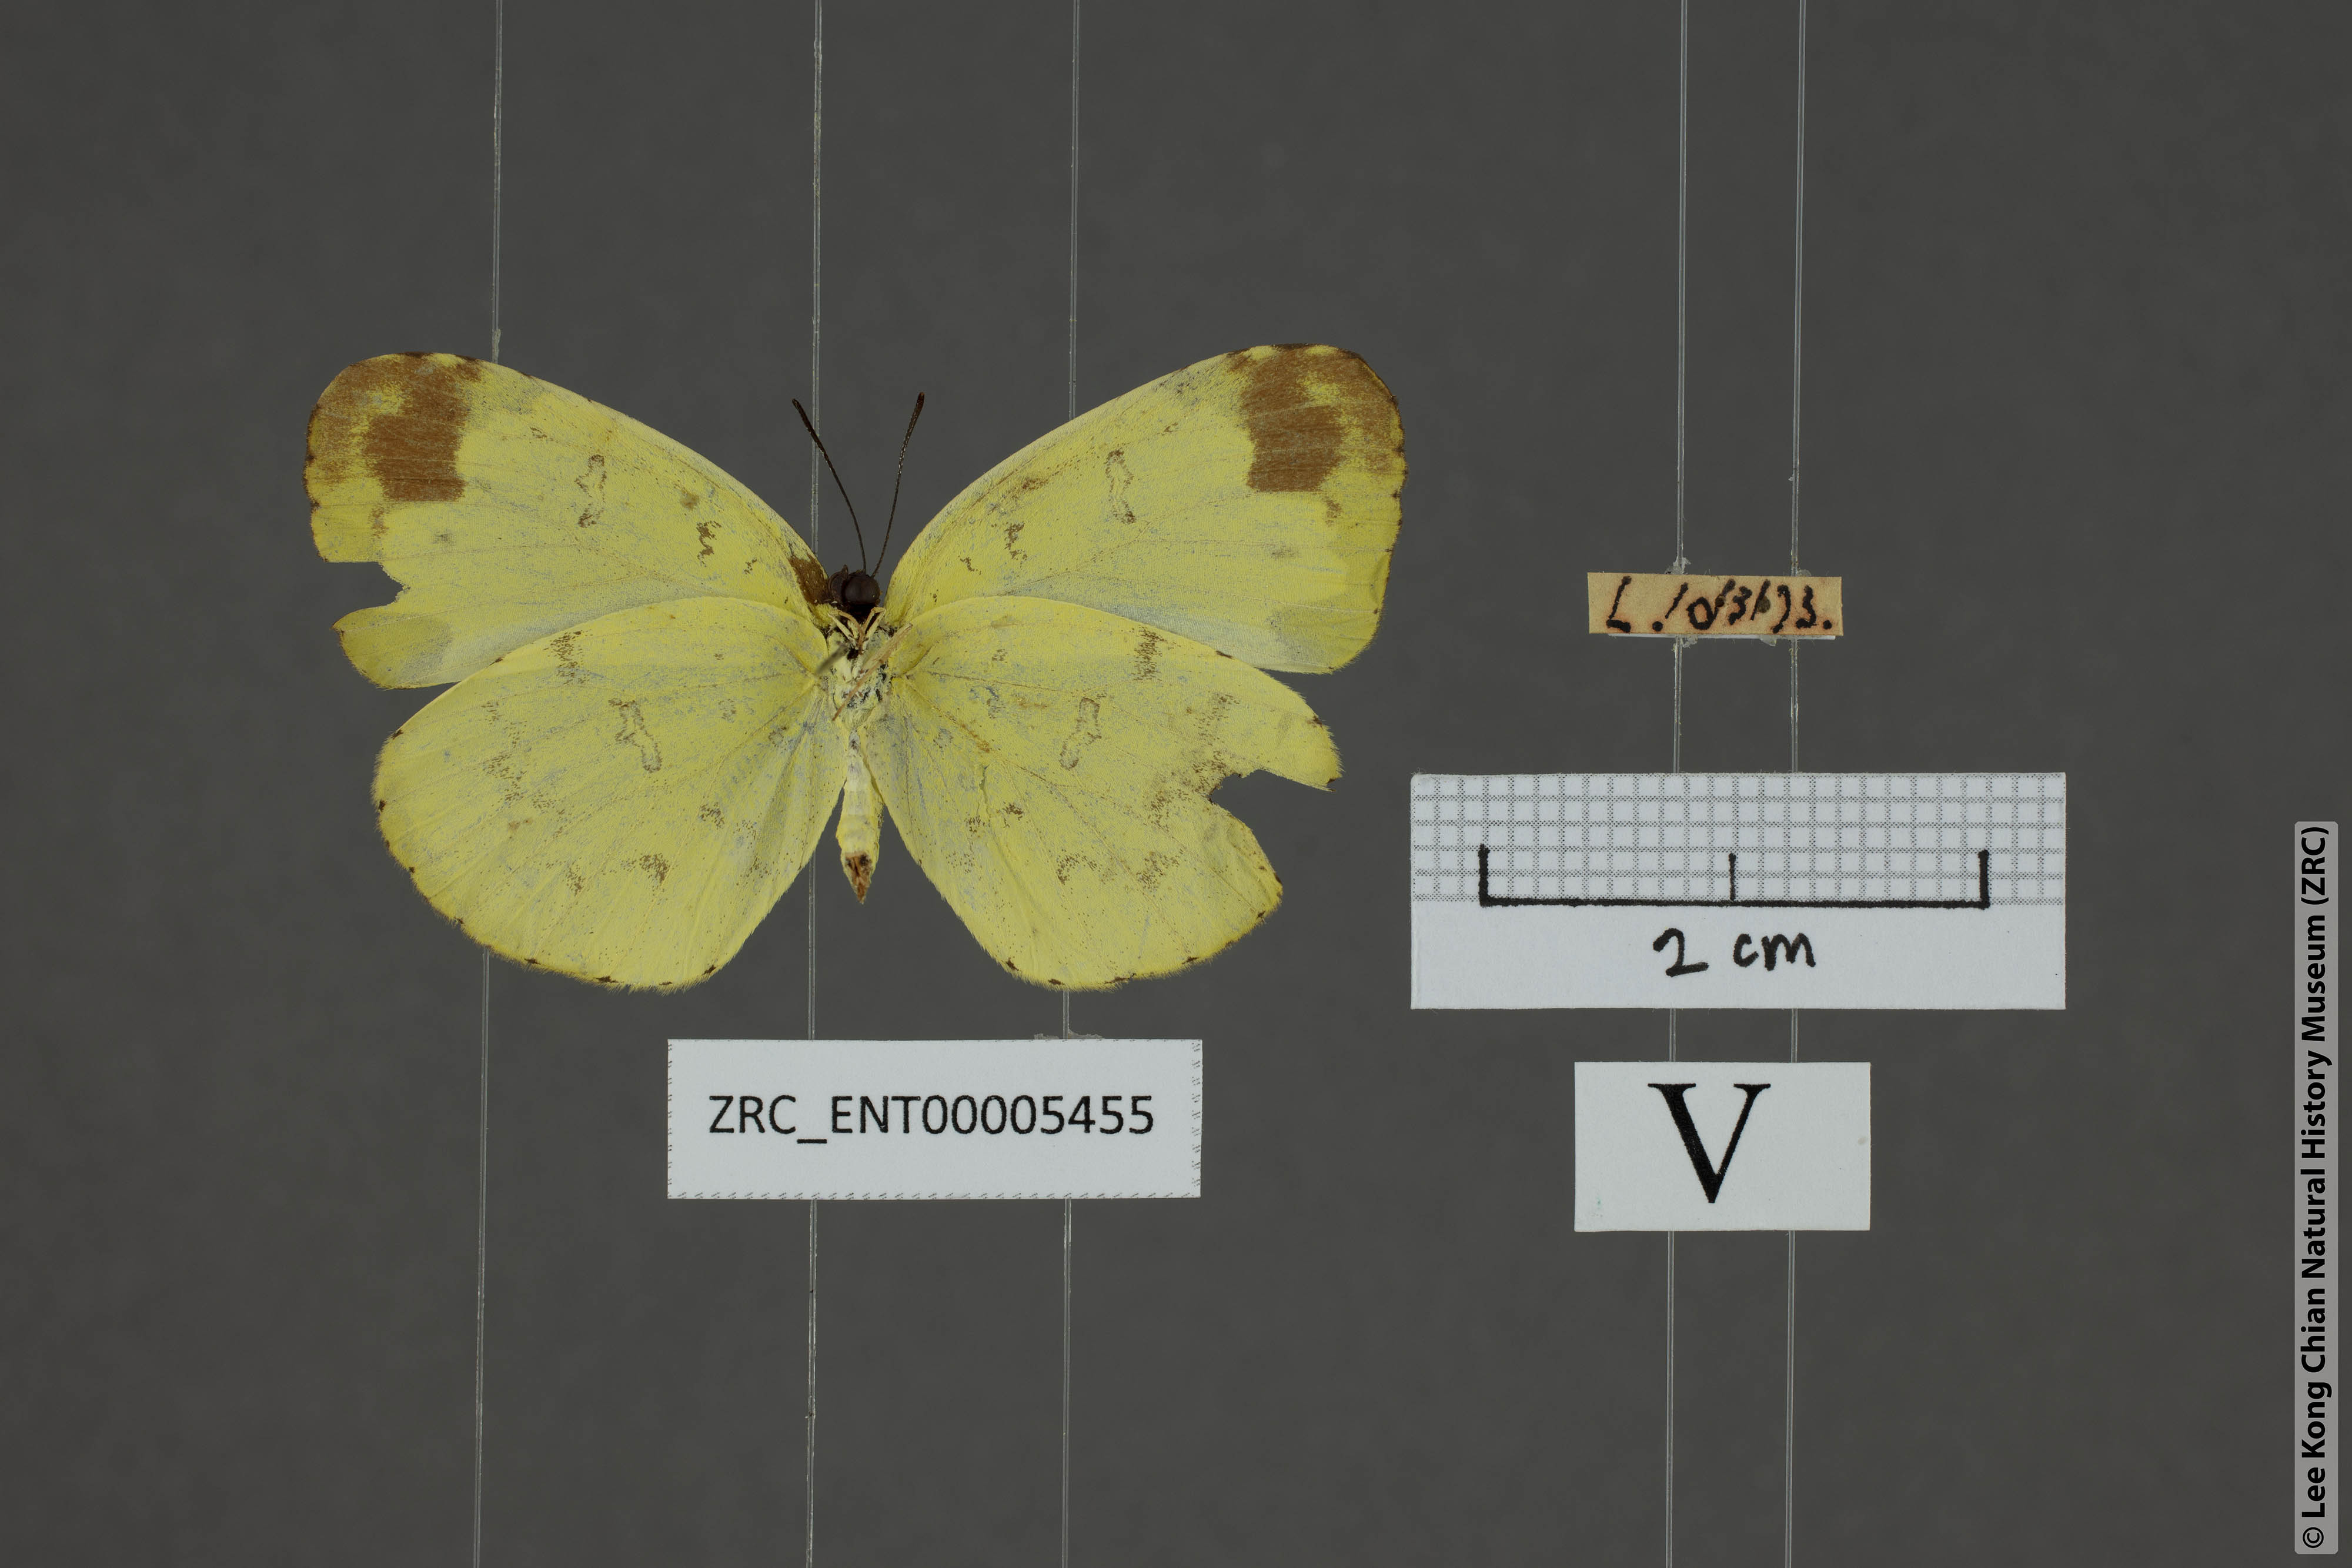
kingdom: Animalia
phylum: Arthropoda
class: Insecta
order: Lepidoptera
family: Pieridae
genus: Eurema
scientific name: Eurema lacteola
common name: Scarce grass yellow
